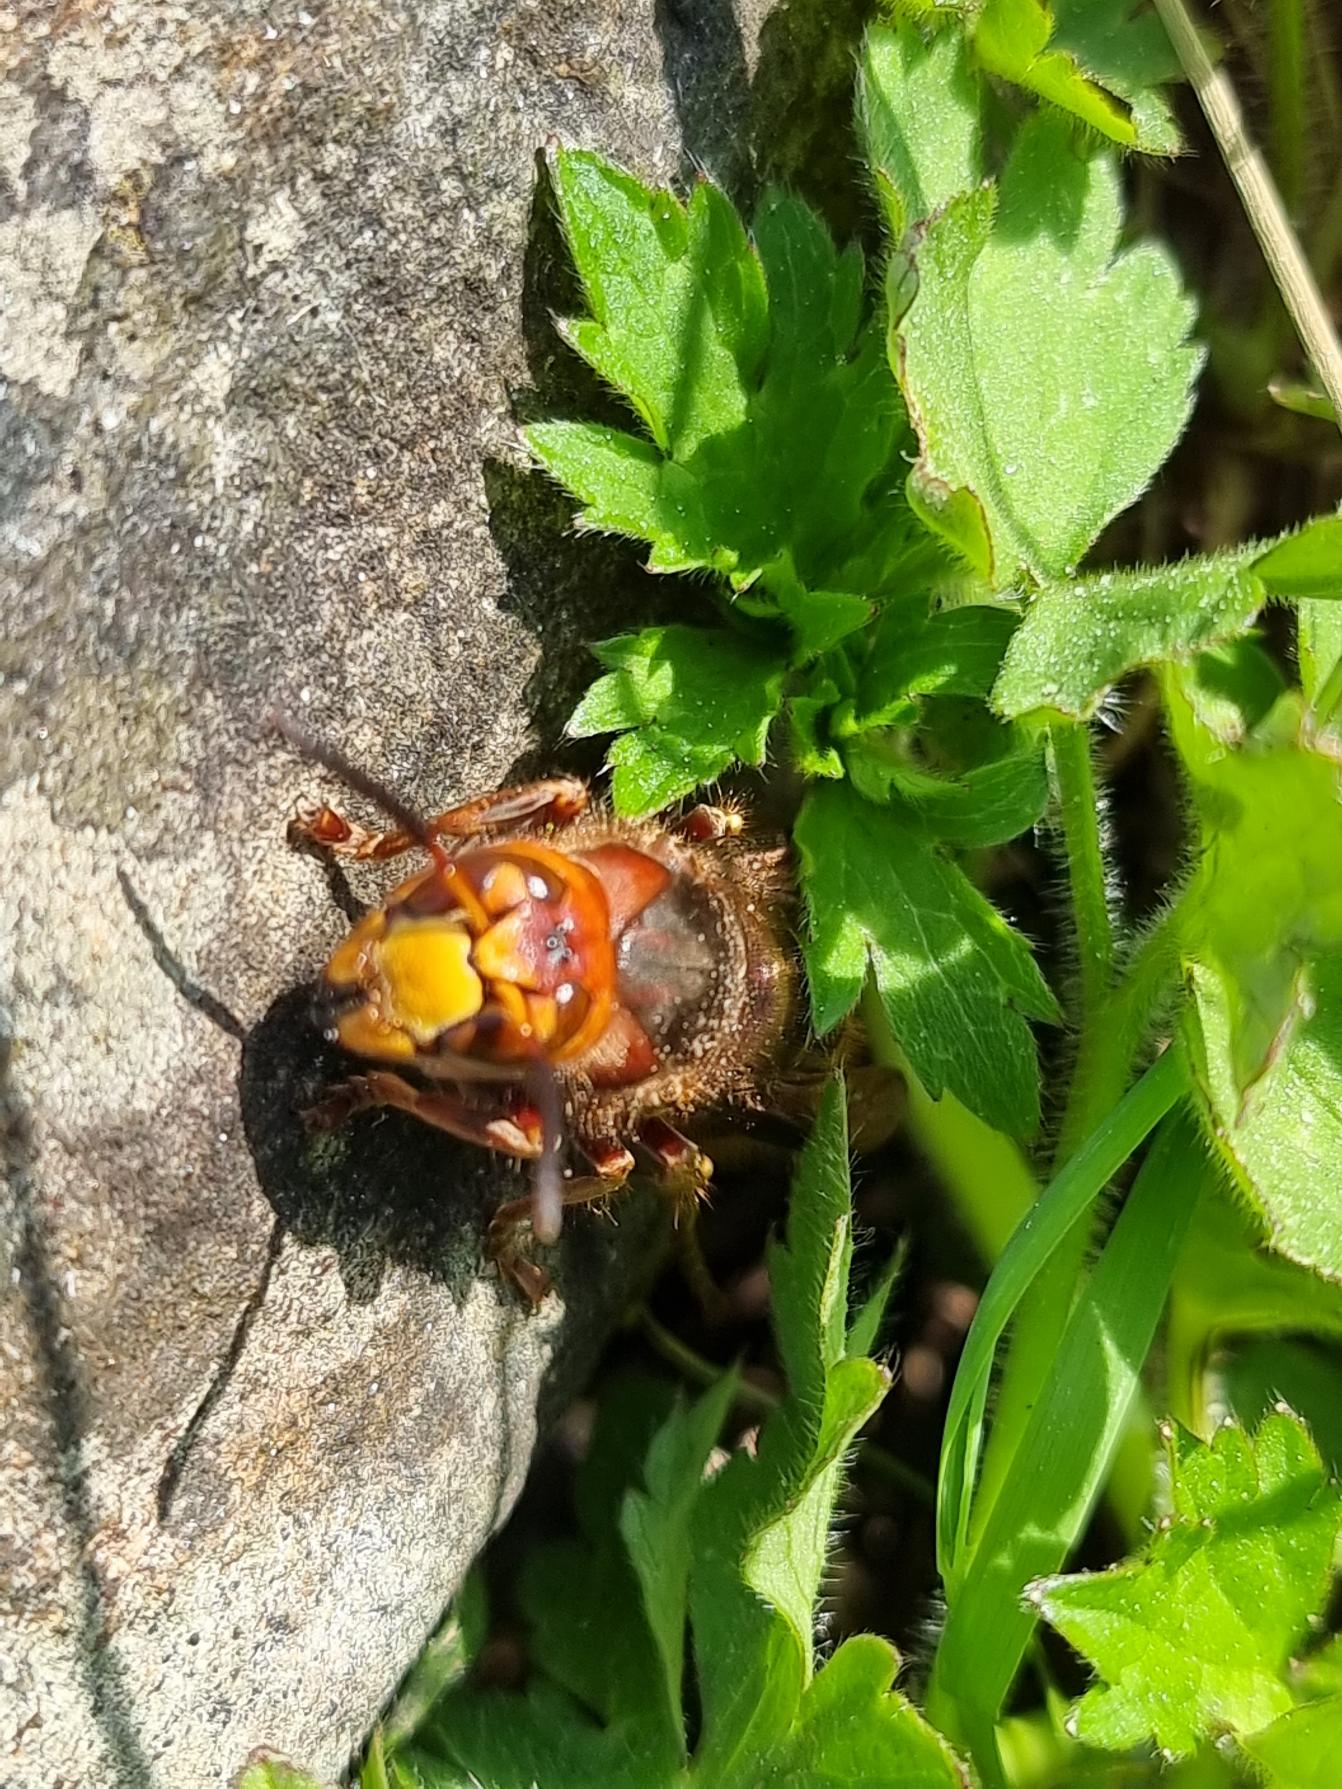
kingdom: Animalia
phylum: Arthropoda
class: Insecta
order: Hymenoptera
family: Vespidae
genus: Vespa
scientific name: Vespa crabro
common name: Stor gedehams
